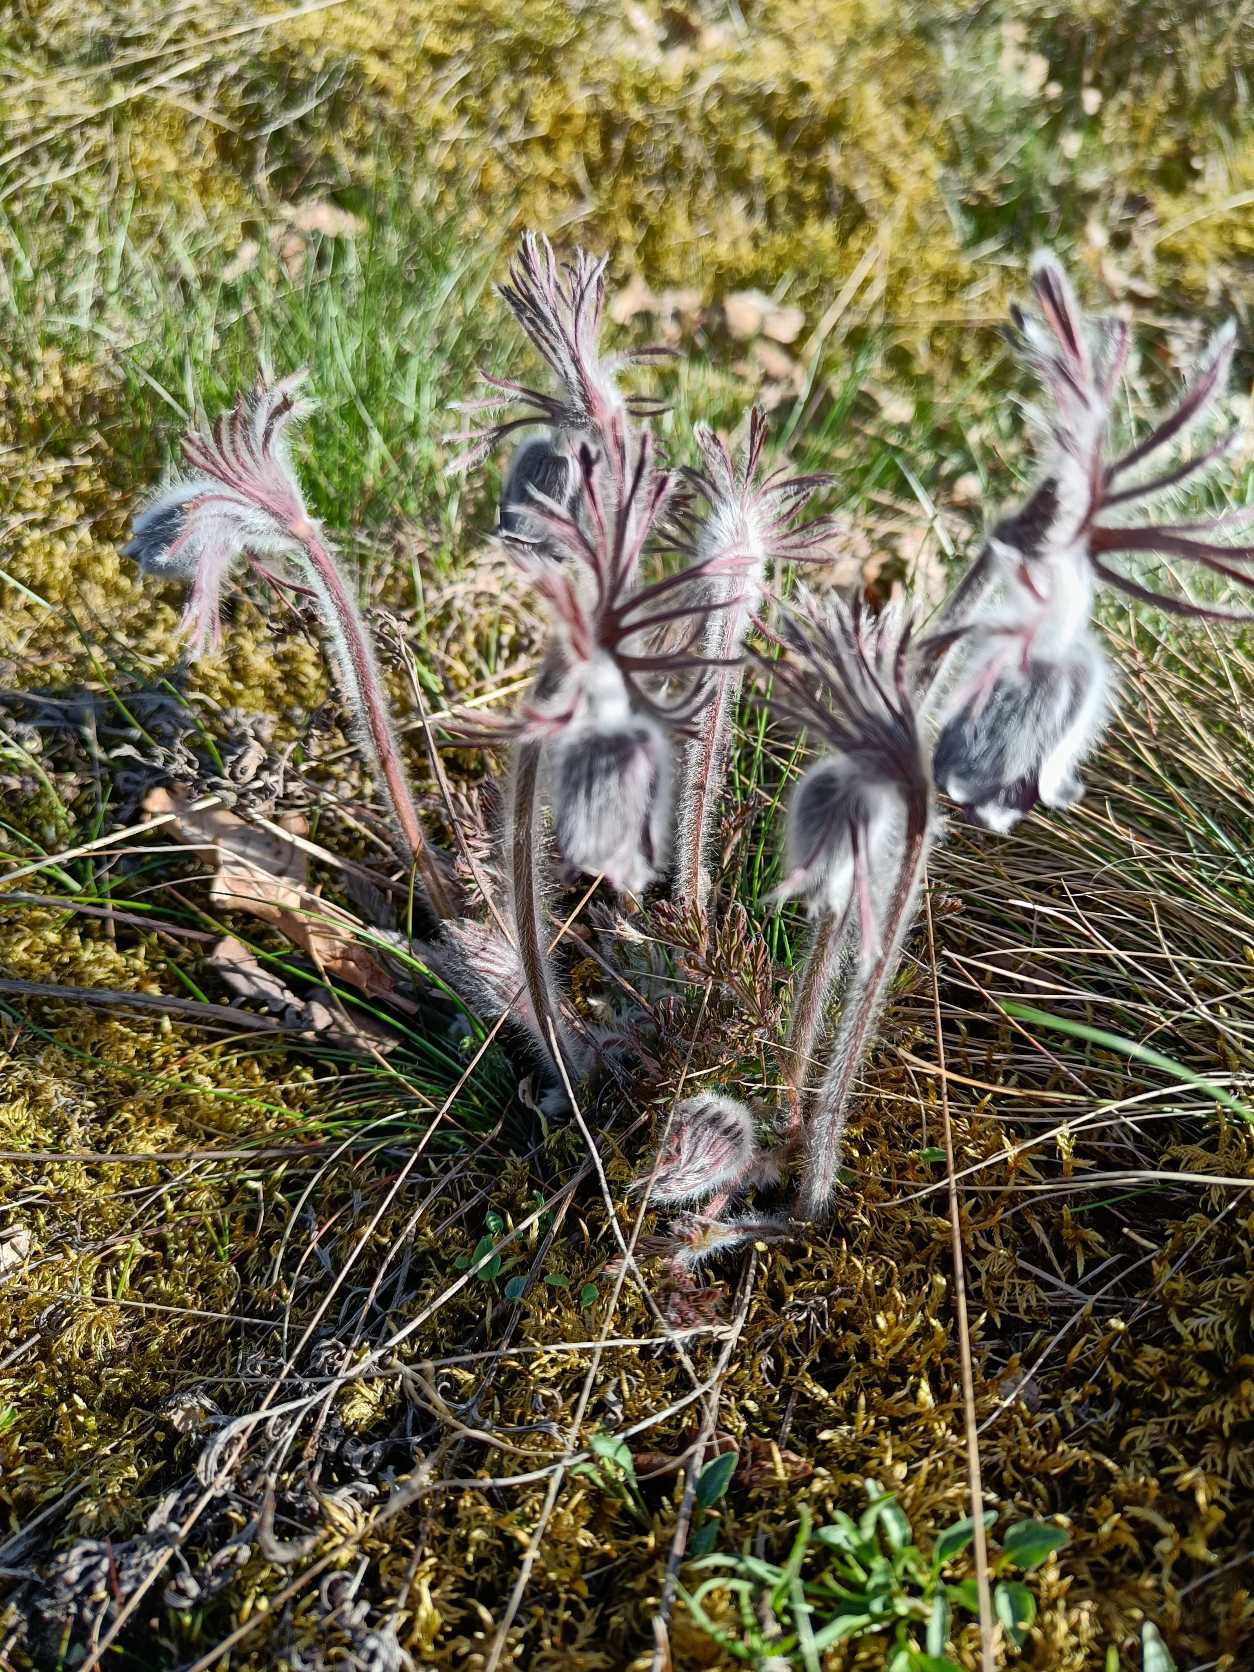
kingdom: Plantae
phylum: Tracheophyta
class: Magnoliopsida
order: Ranunculales
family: Ranunculaceae
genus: Pulsatilla
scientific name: Pulsatilla pratensis
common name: Nikkende kobjælde
